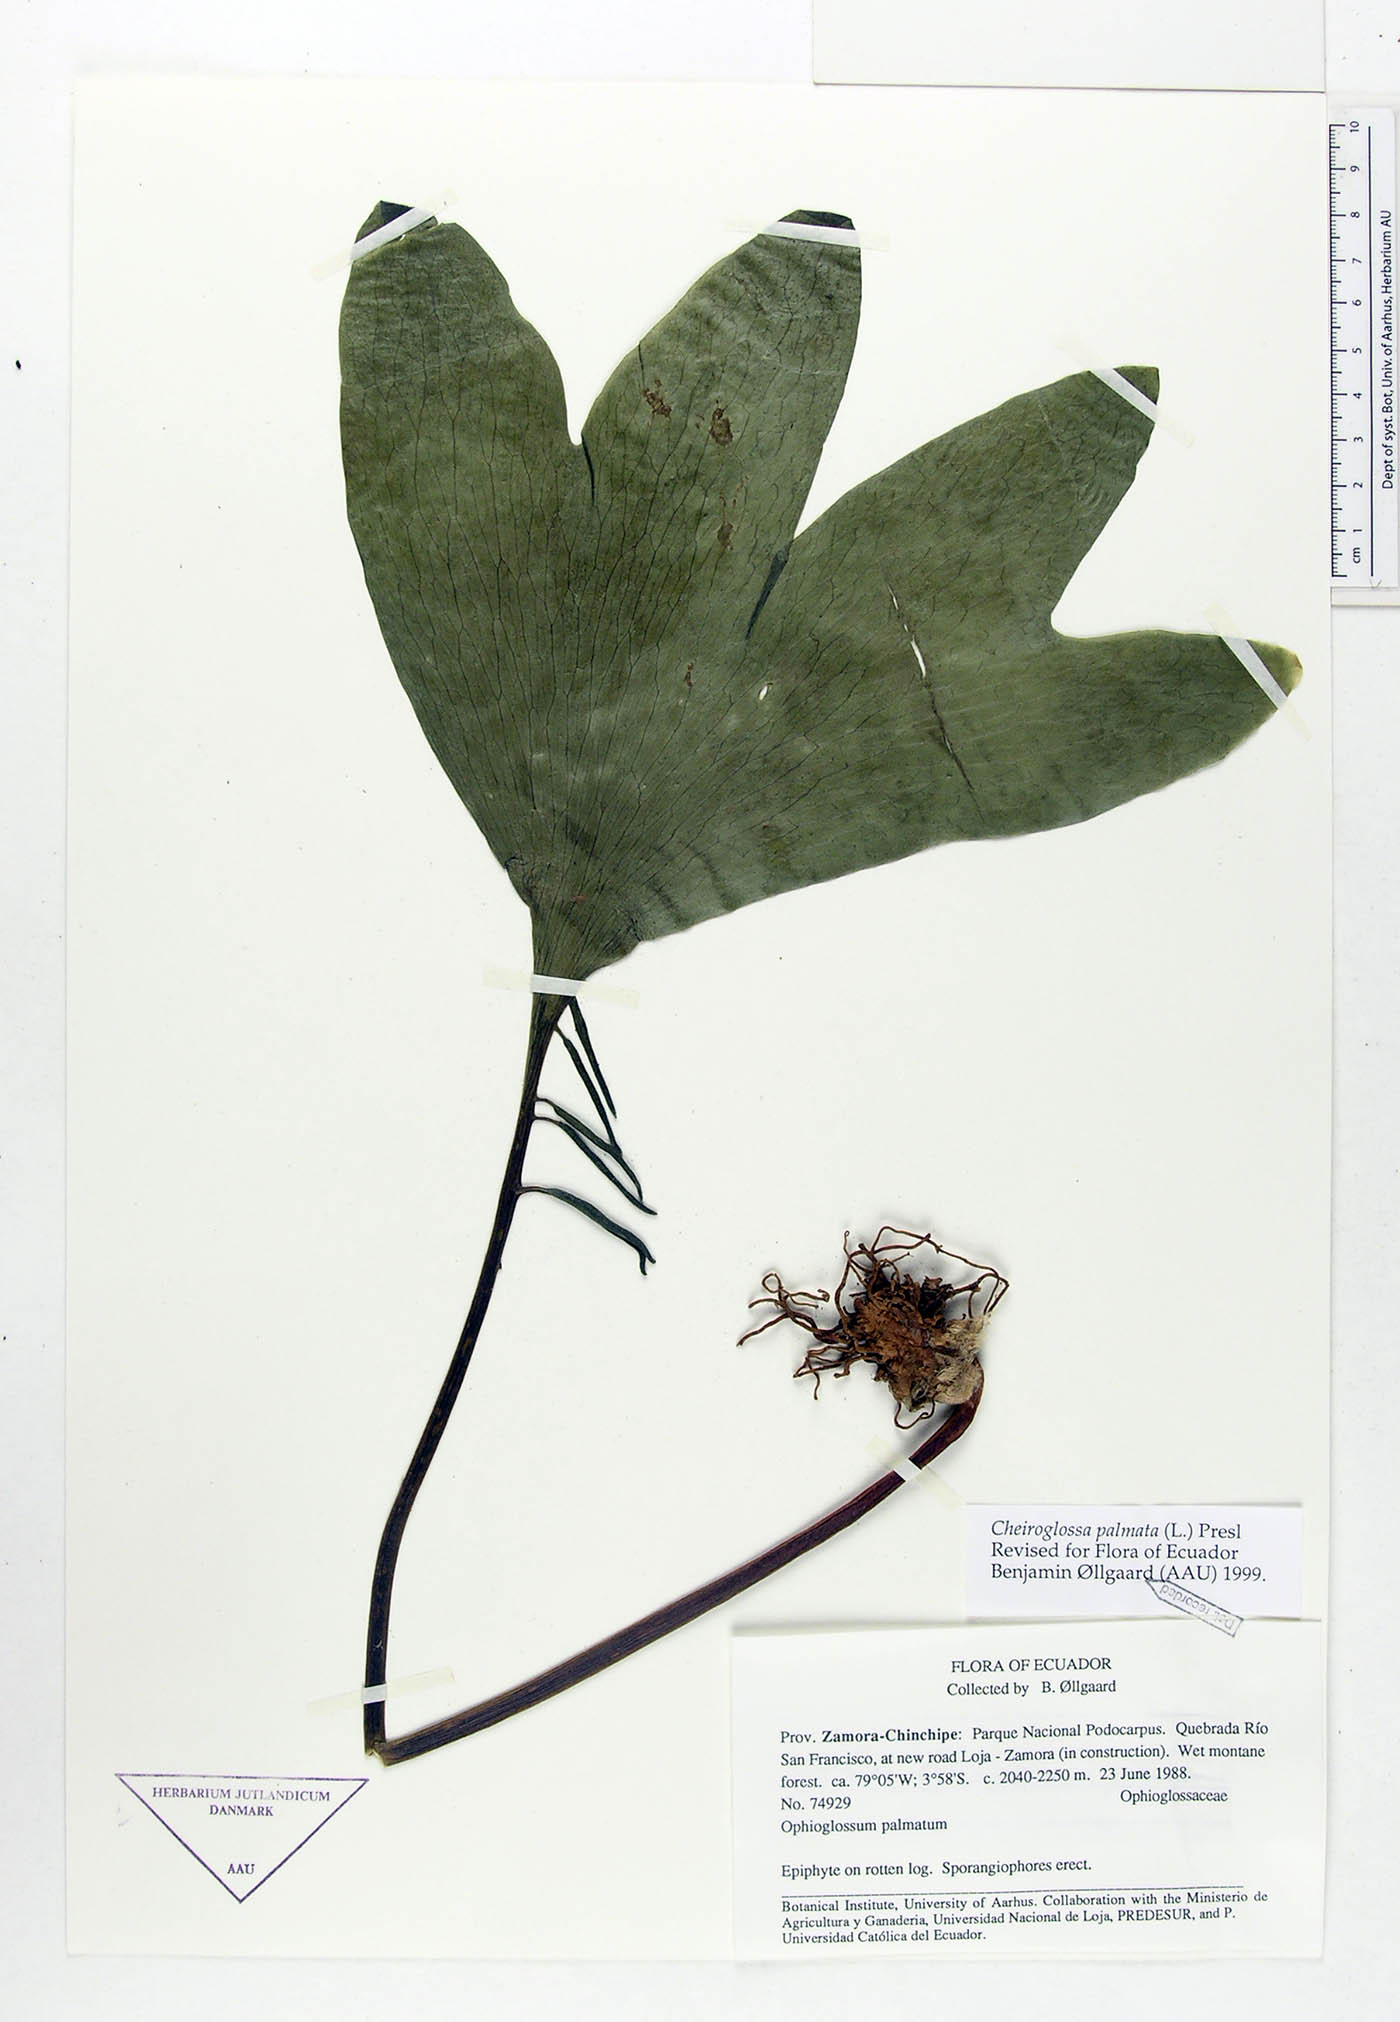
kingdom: Plantae
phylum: Tracheophyta
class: Polypodiopsida
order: Ophioglossales
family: Ophioglossaceae
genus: Cheiroglossa
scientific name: Cheiroglossa palmata
